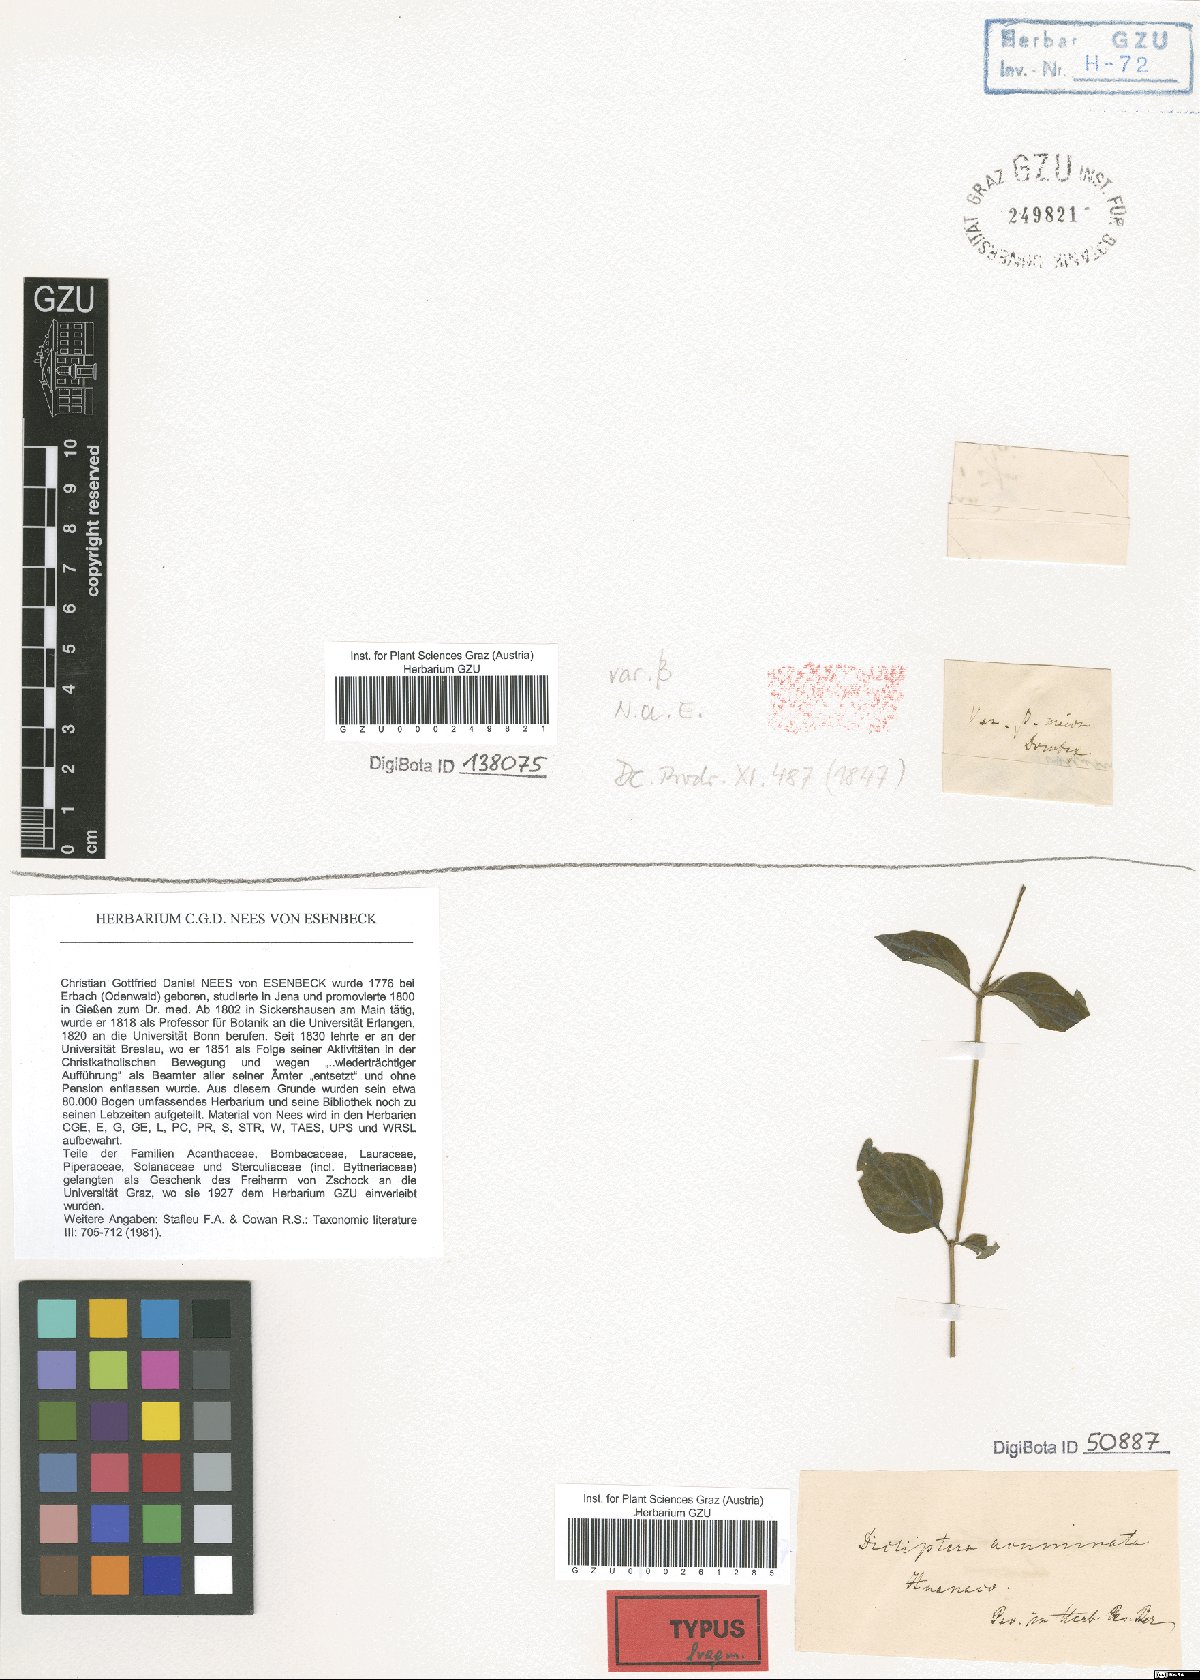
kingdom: Plantae
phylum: Tracheophyta
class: Magnoliopsida
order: Lamiales
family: Acanthaceae
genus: Dicliptera
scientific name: Dicliptera acuminata
